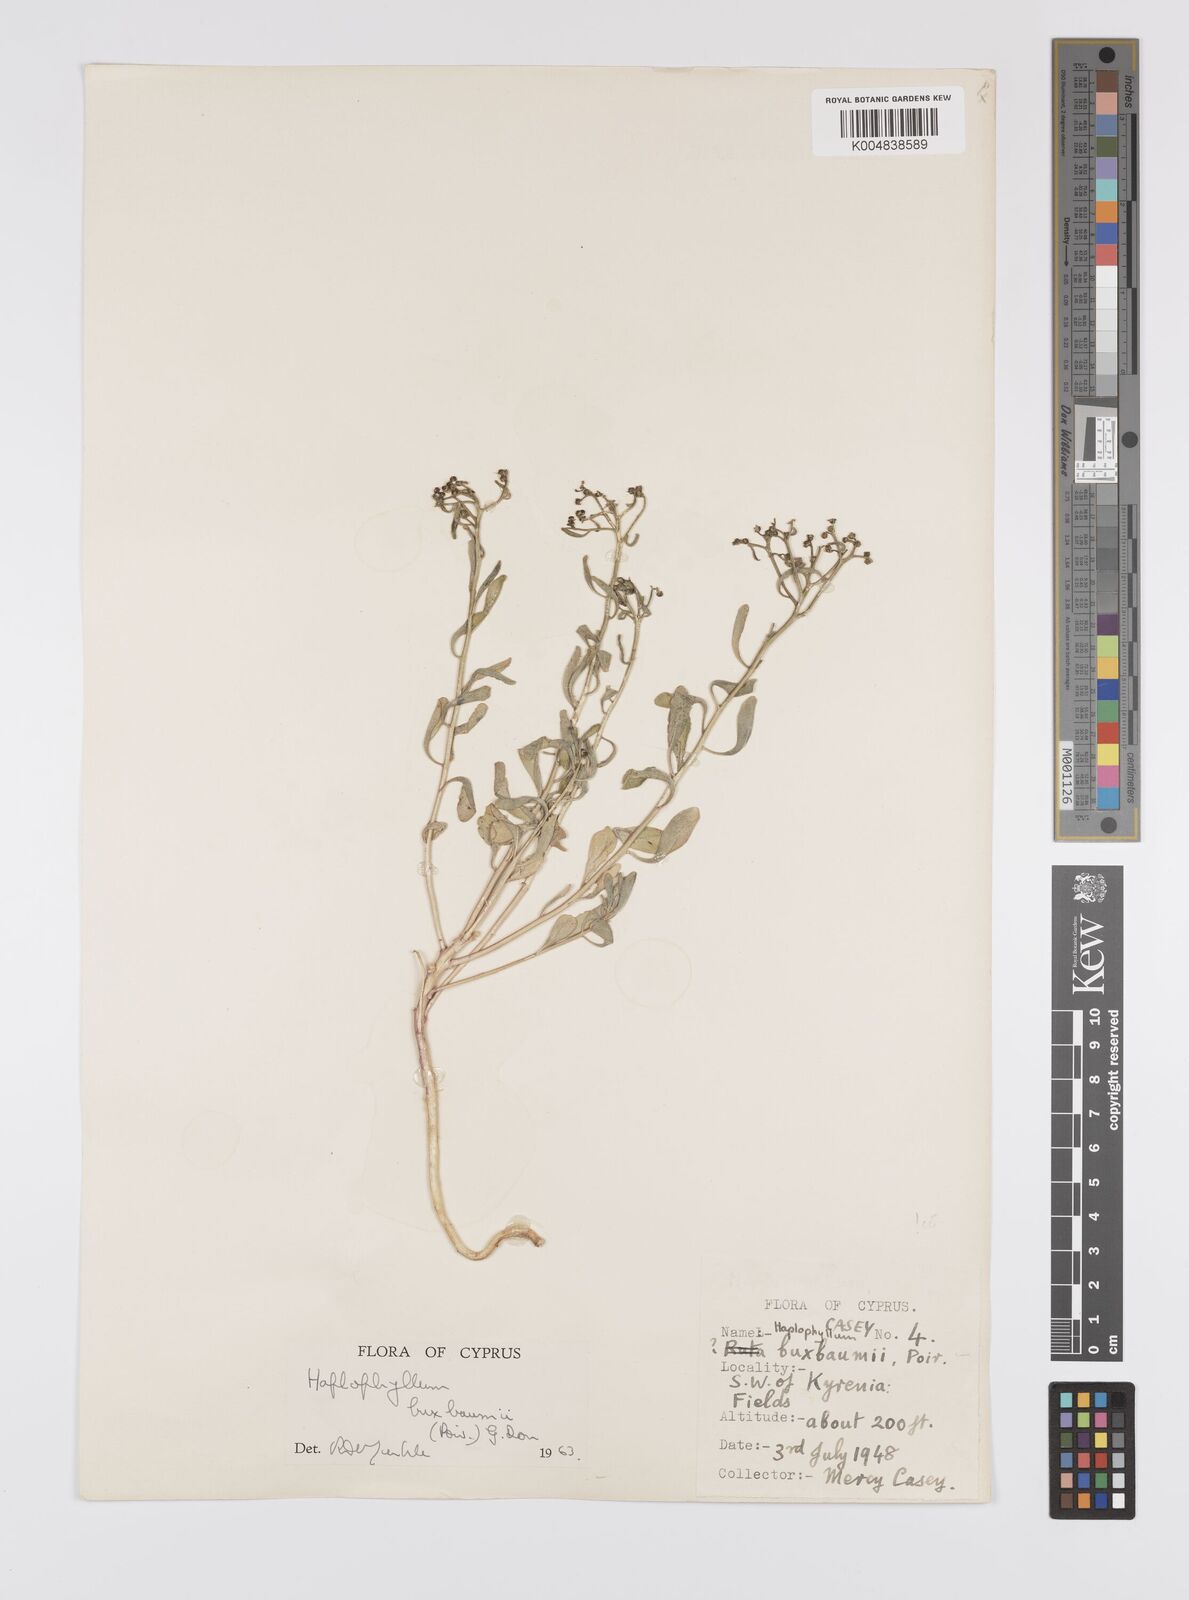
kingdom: Plantae
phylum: Tracheophyta
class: Magnoliopsida
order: Sapindales
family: Rutaceae
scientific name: Rutaceae
